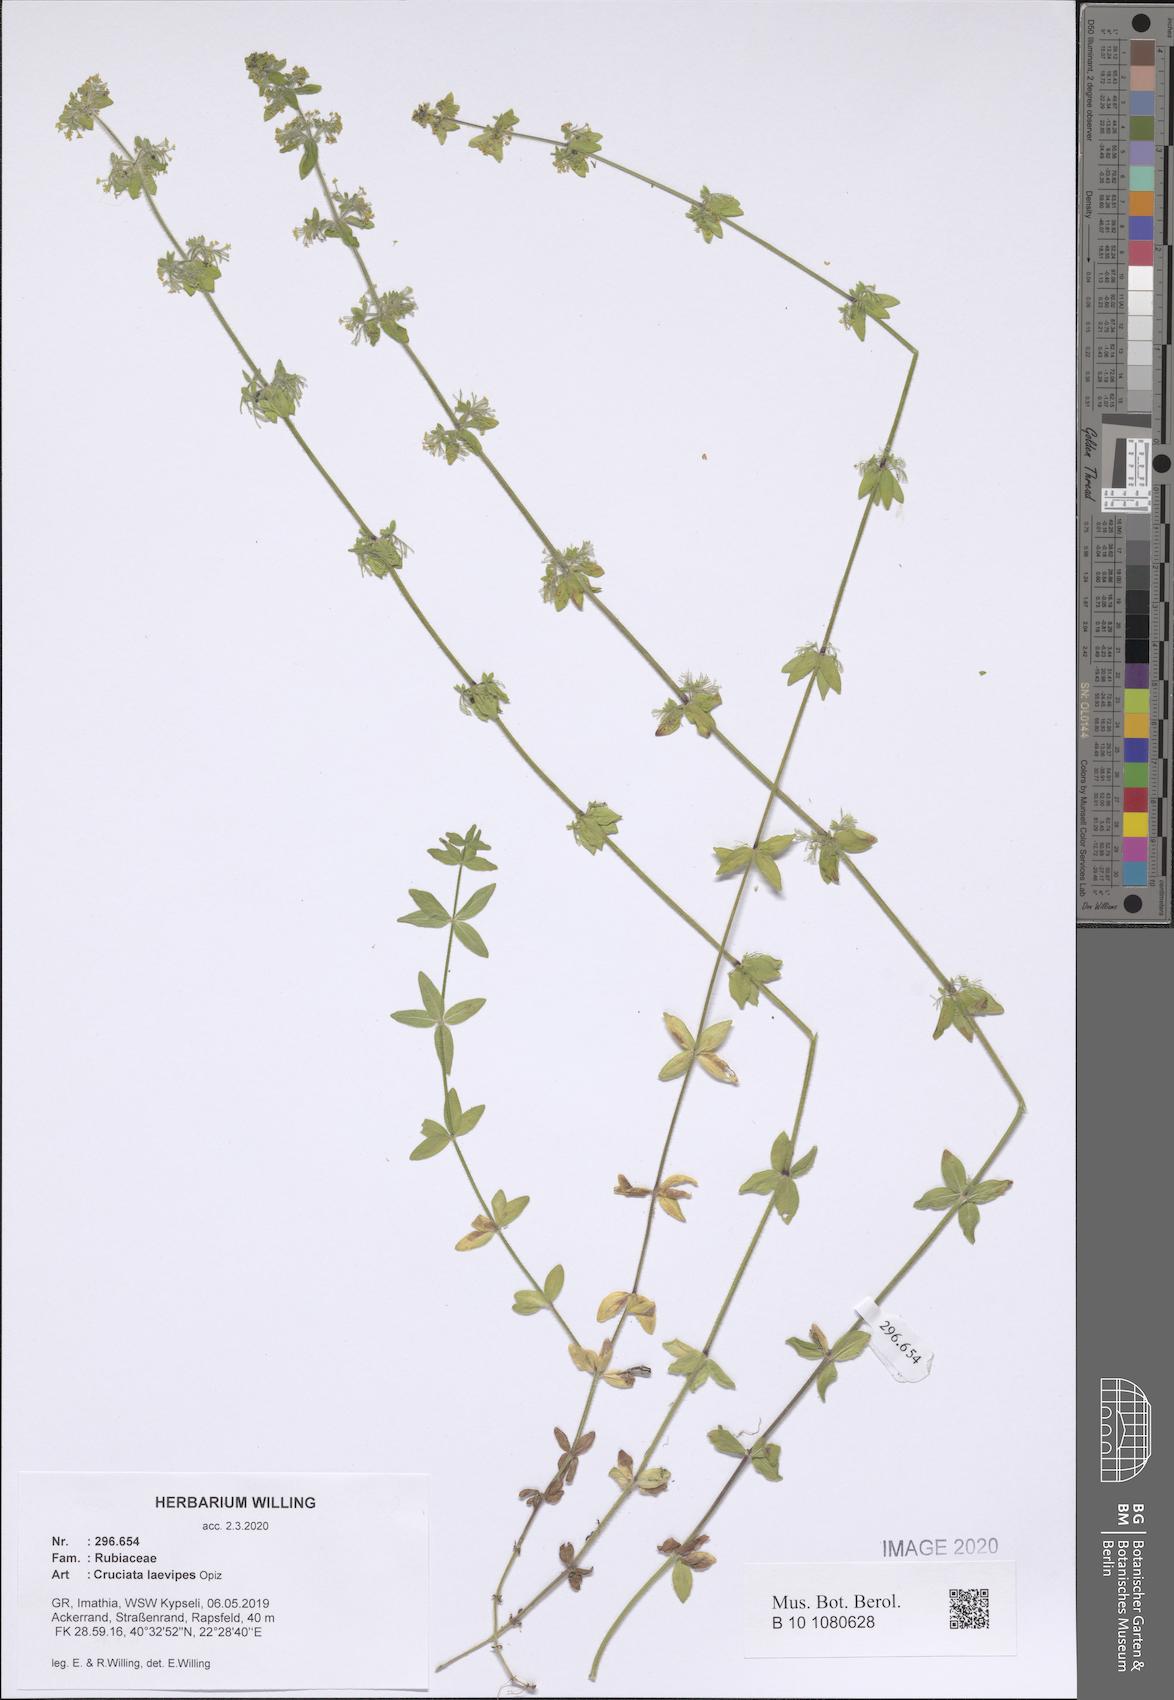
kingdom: Plantae
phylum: Tracheophyta
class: Magnoliopsida
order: Gentianales
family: Rubiaceae
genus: Cruciata
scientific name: Cruciata laevipes
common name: Crosswort
